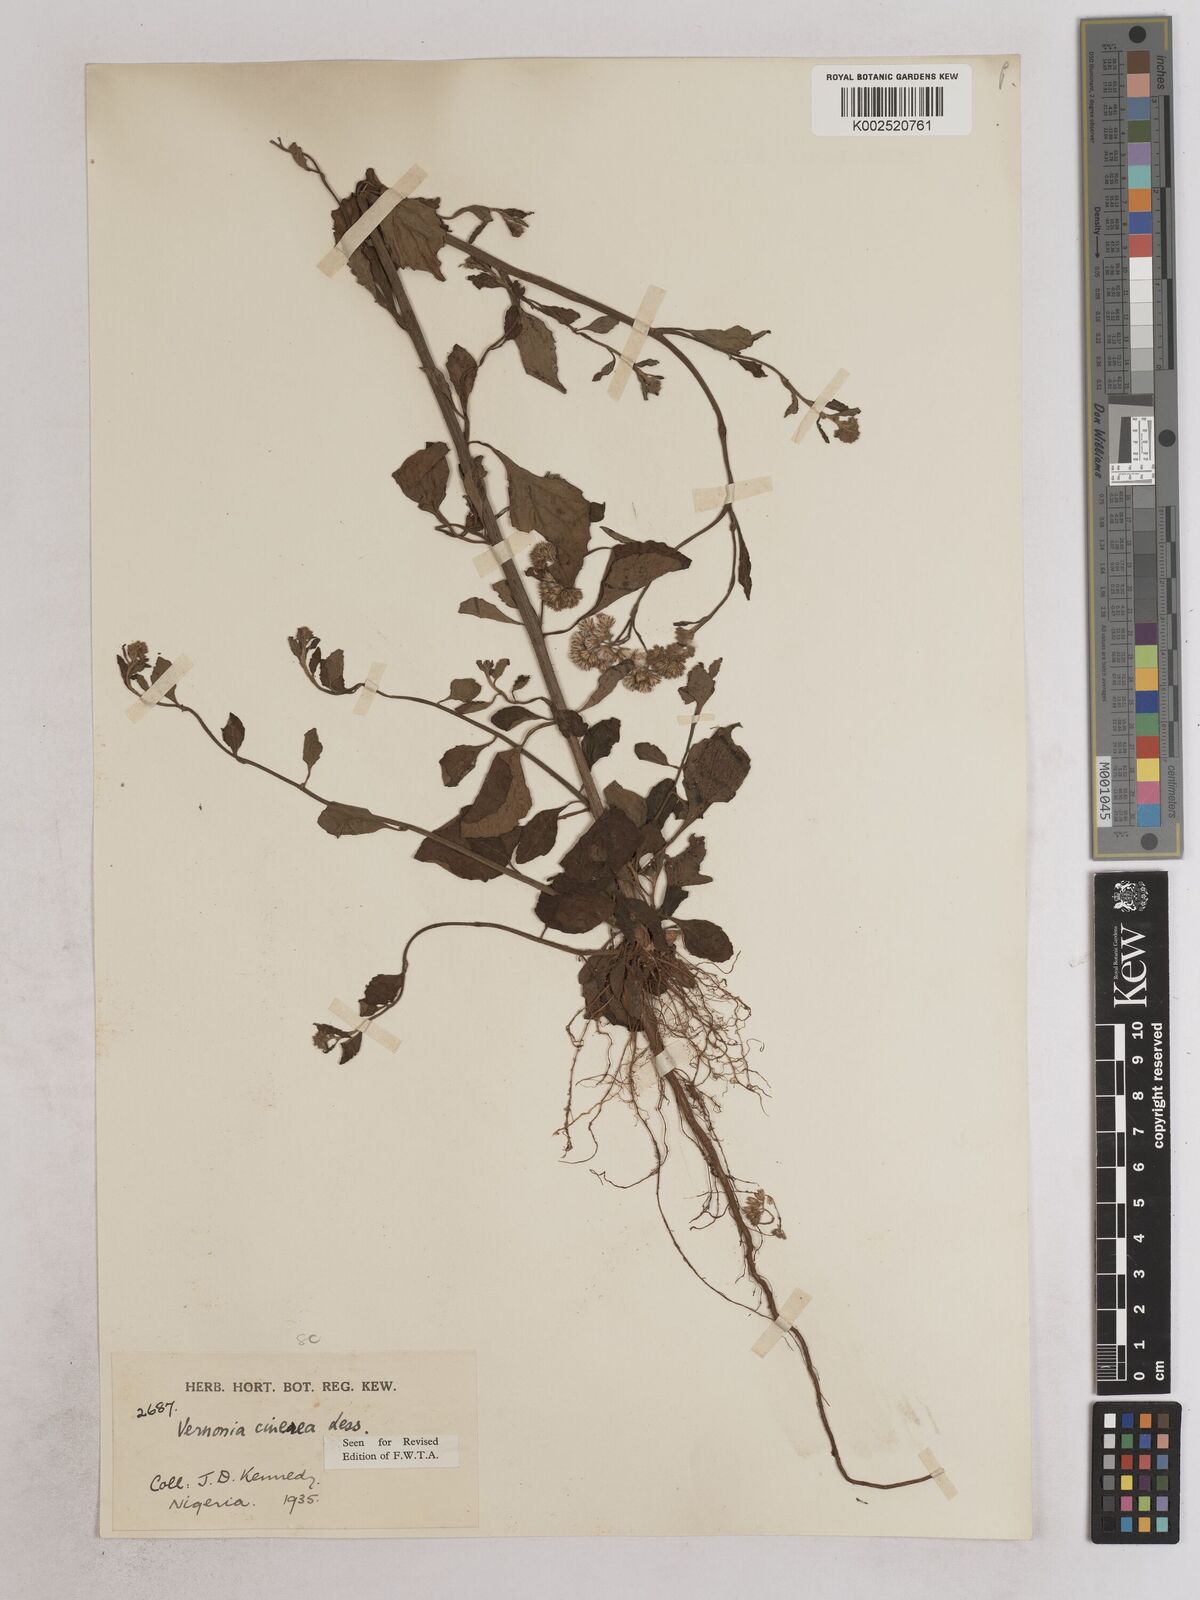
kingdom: Plantae
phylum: Tracheophyta
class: Magnoliopsida
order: Asterales
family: Asteraceae
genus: Cyanthillium
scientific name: Cyanthillium cinereum
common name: Little ironweed
